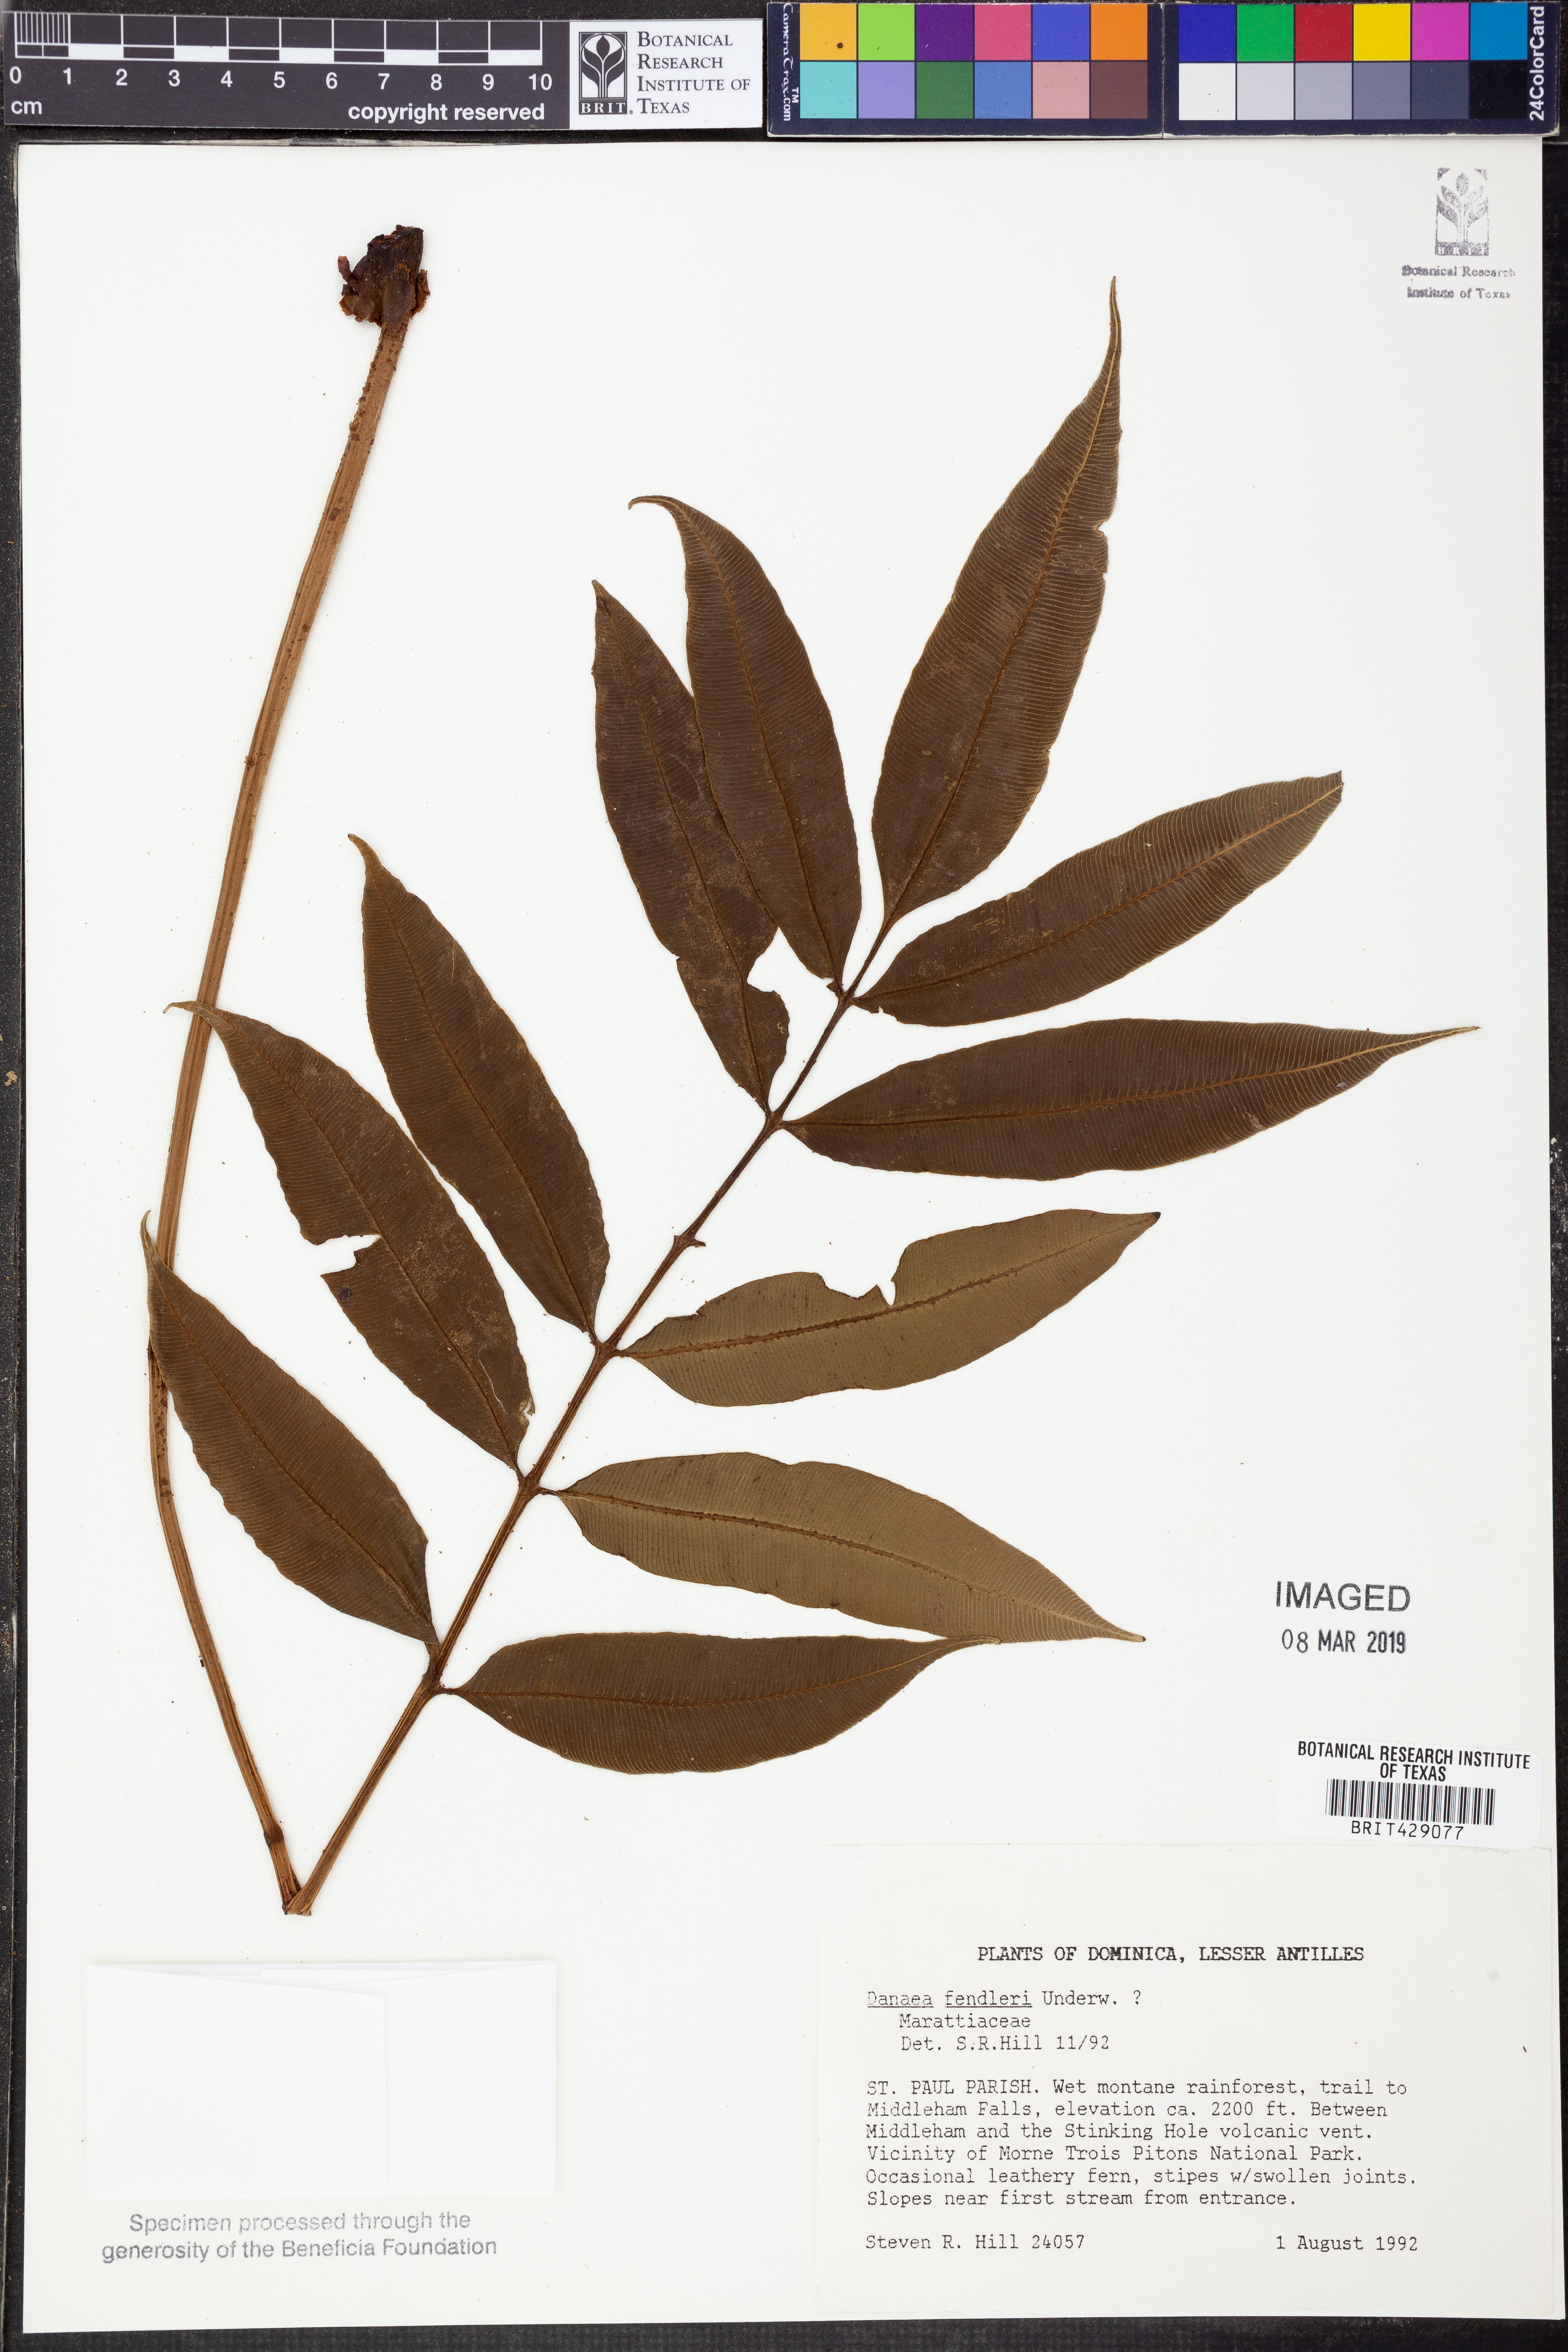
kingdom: Plantae
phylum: Tracheophyta
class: Polypodiopsida
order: Marattiales
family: Marattiaceae
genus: Danaea
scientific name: Danaea alata
